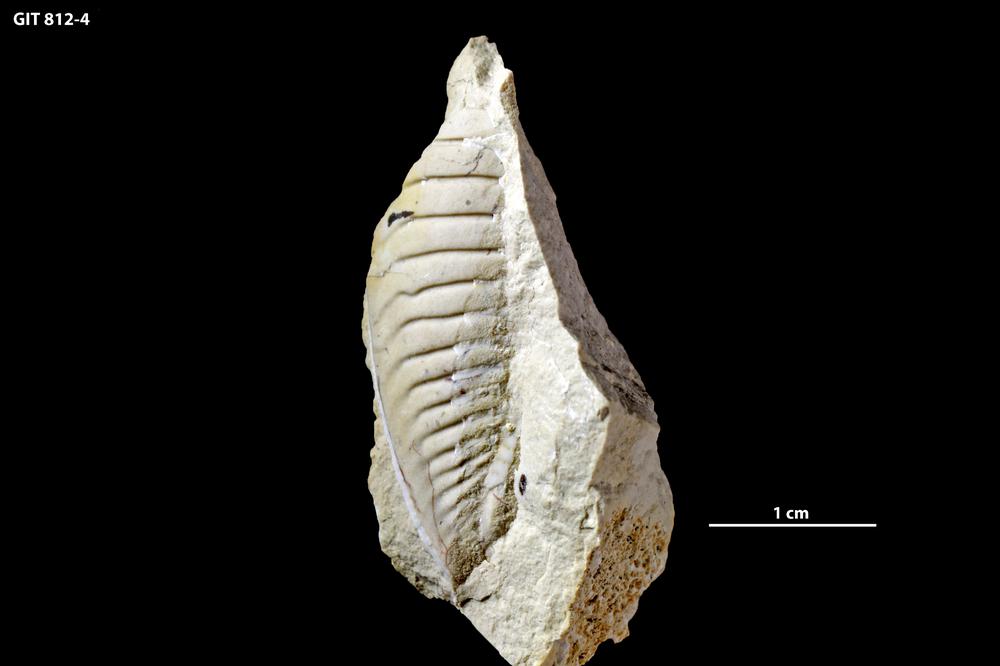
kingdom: Animalia
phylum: Arthropoda
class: Trilobita
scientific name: Trilobita
